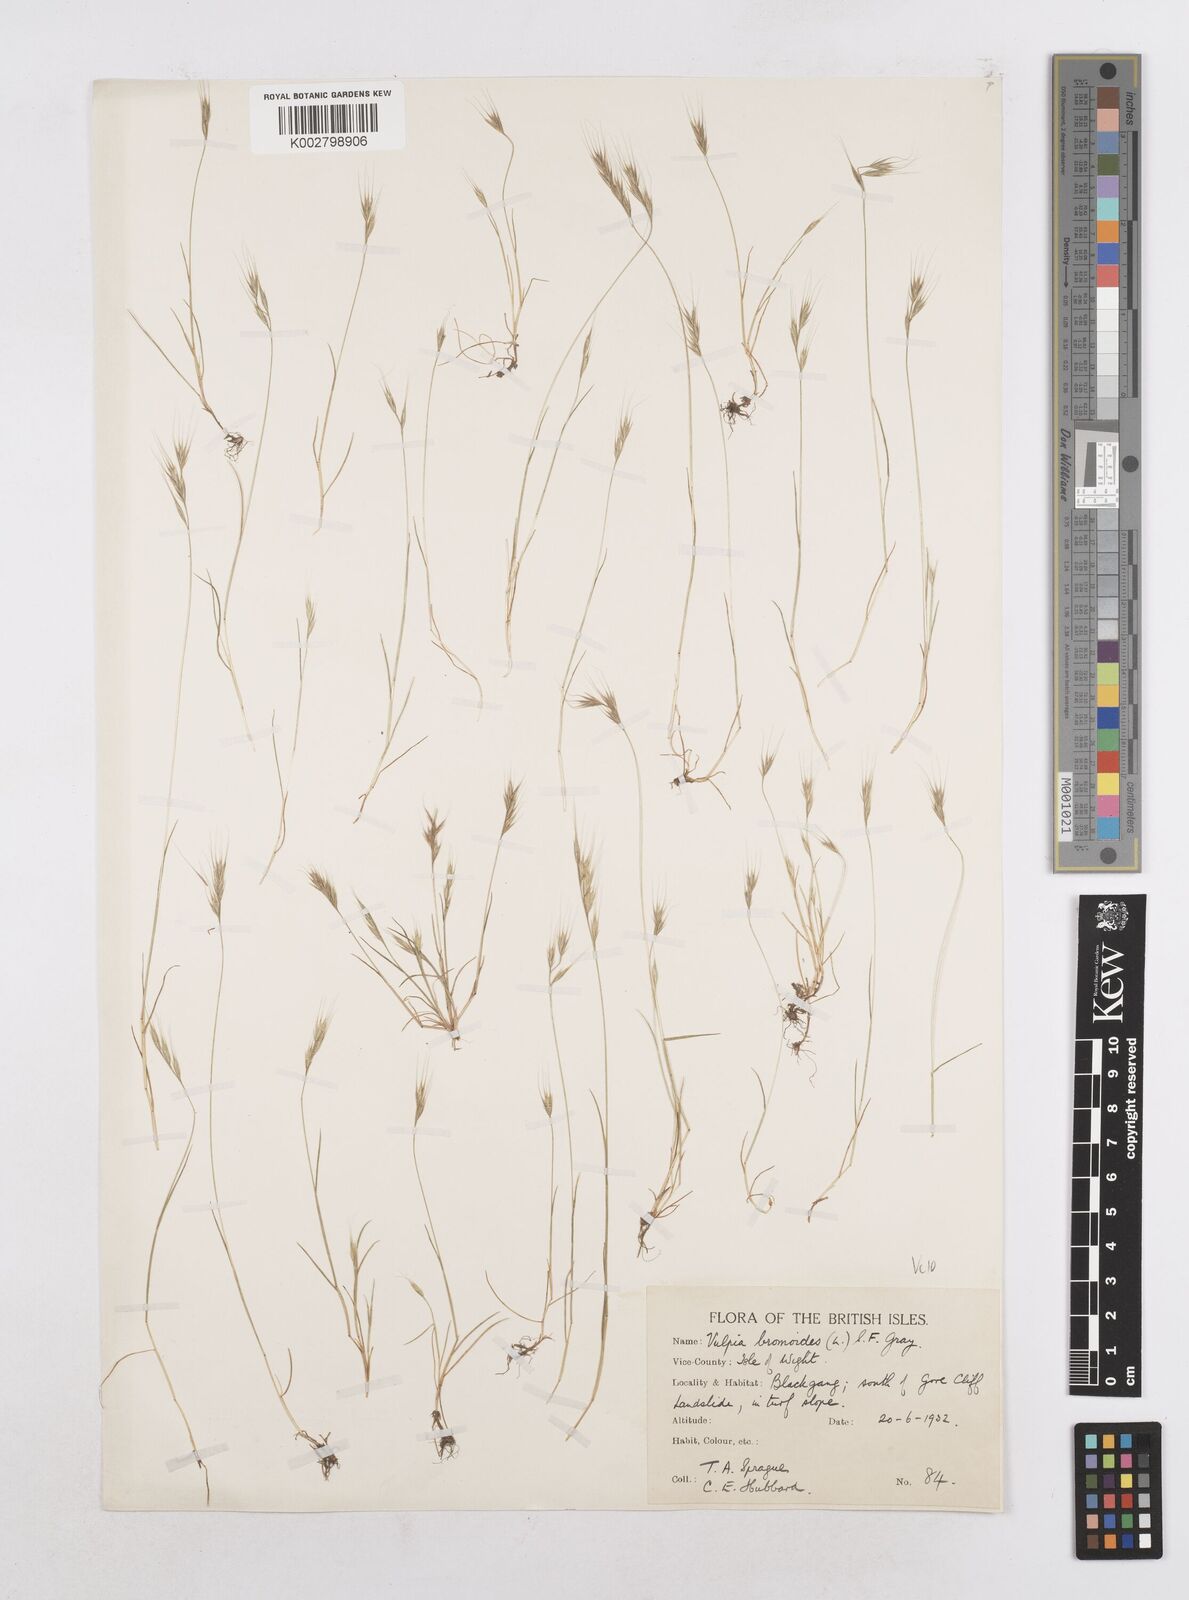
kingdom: Plantae
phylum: Tracheophyta
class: Liliopsida
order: Poales
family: Poaceae
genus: Festuca
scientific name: Festuca bromoides
